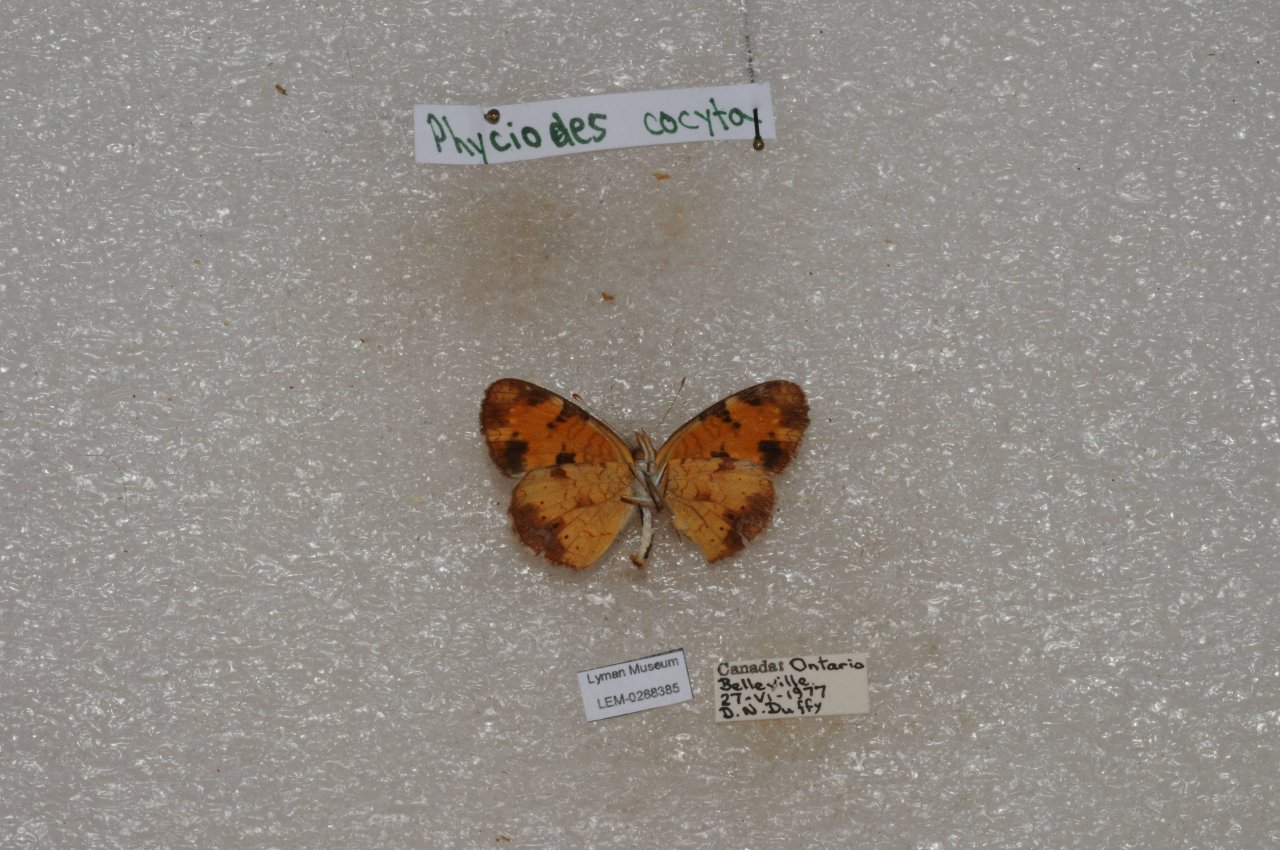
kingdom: Animalia
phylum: Arthropoda
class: Insecta
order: Lepidoptera
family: Nymphalidae
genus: Phyciodes
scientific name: Phyciodes tharos
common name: Northern Crescent
